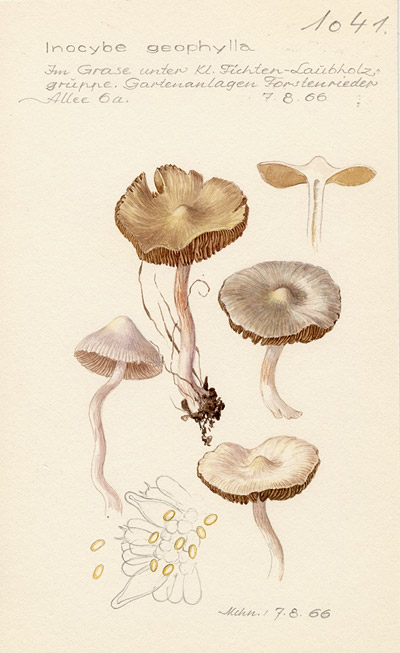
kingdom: Fungi
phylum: Basidiomycota
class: Agaricomycetes
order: Agaricales
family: Inocybaceae
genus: Inocybe
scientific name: Inocybe geophylla
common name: White fibrecap
